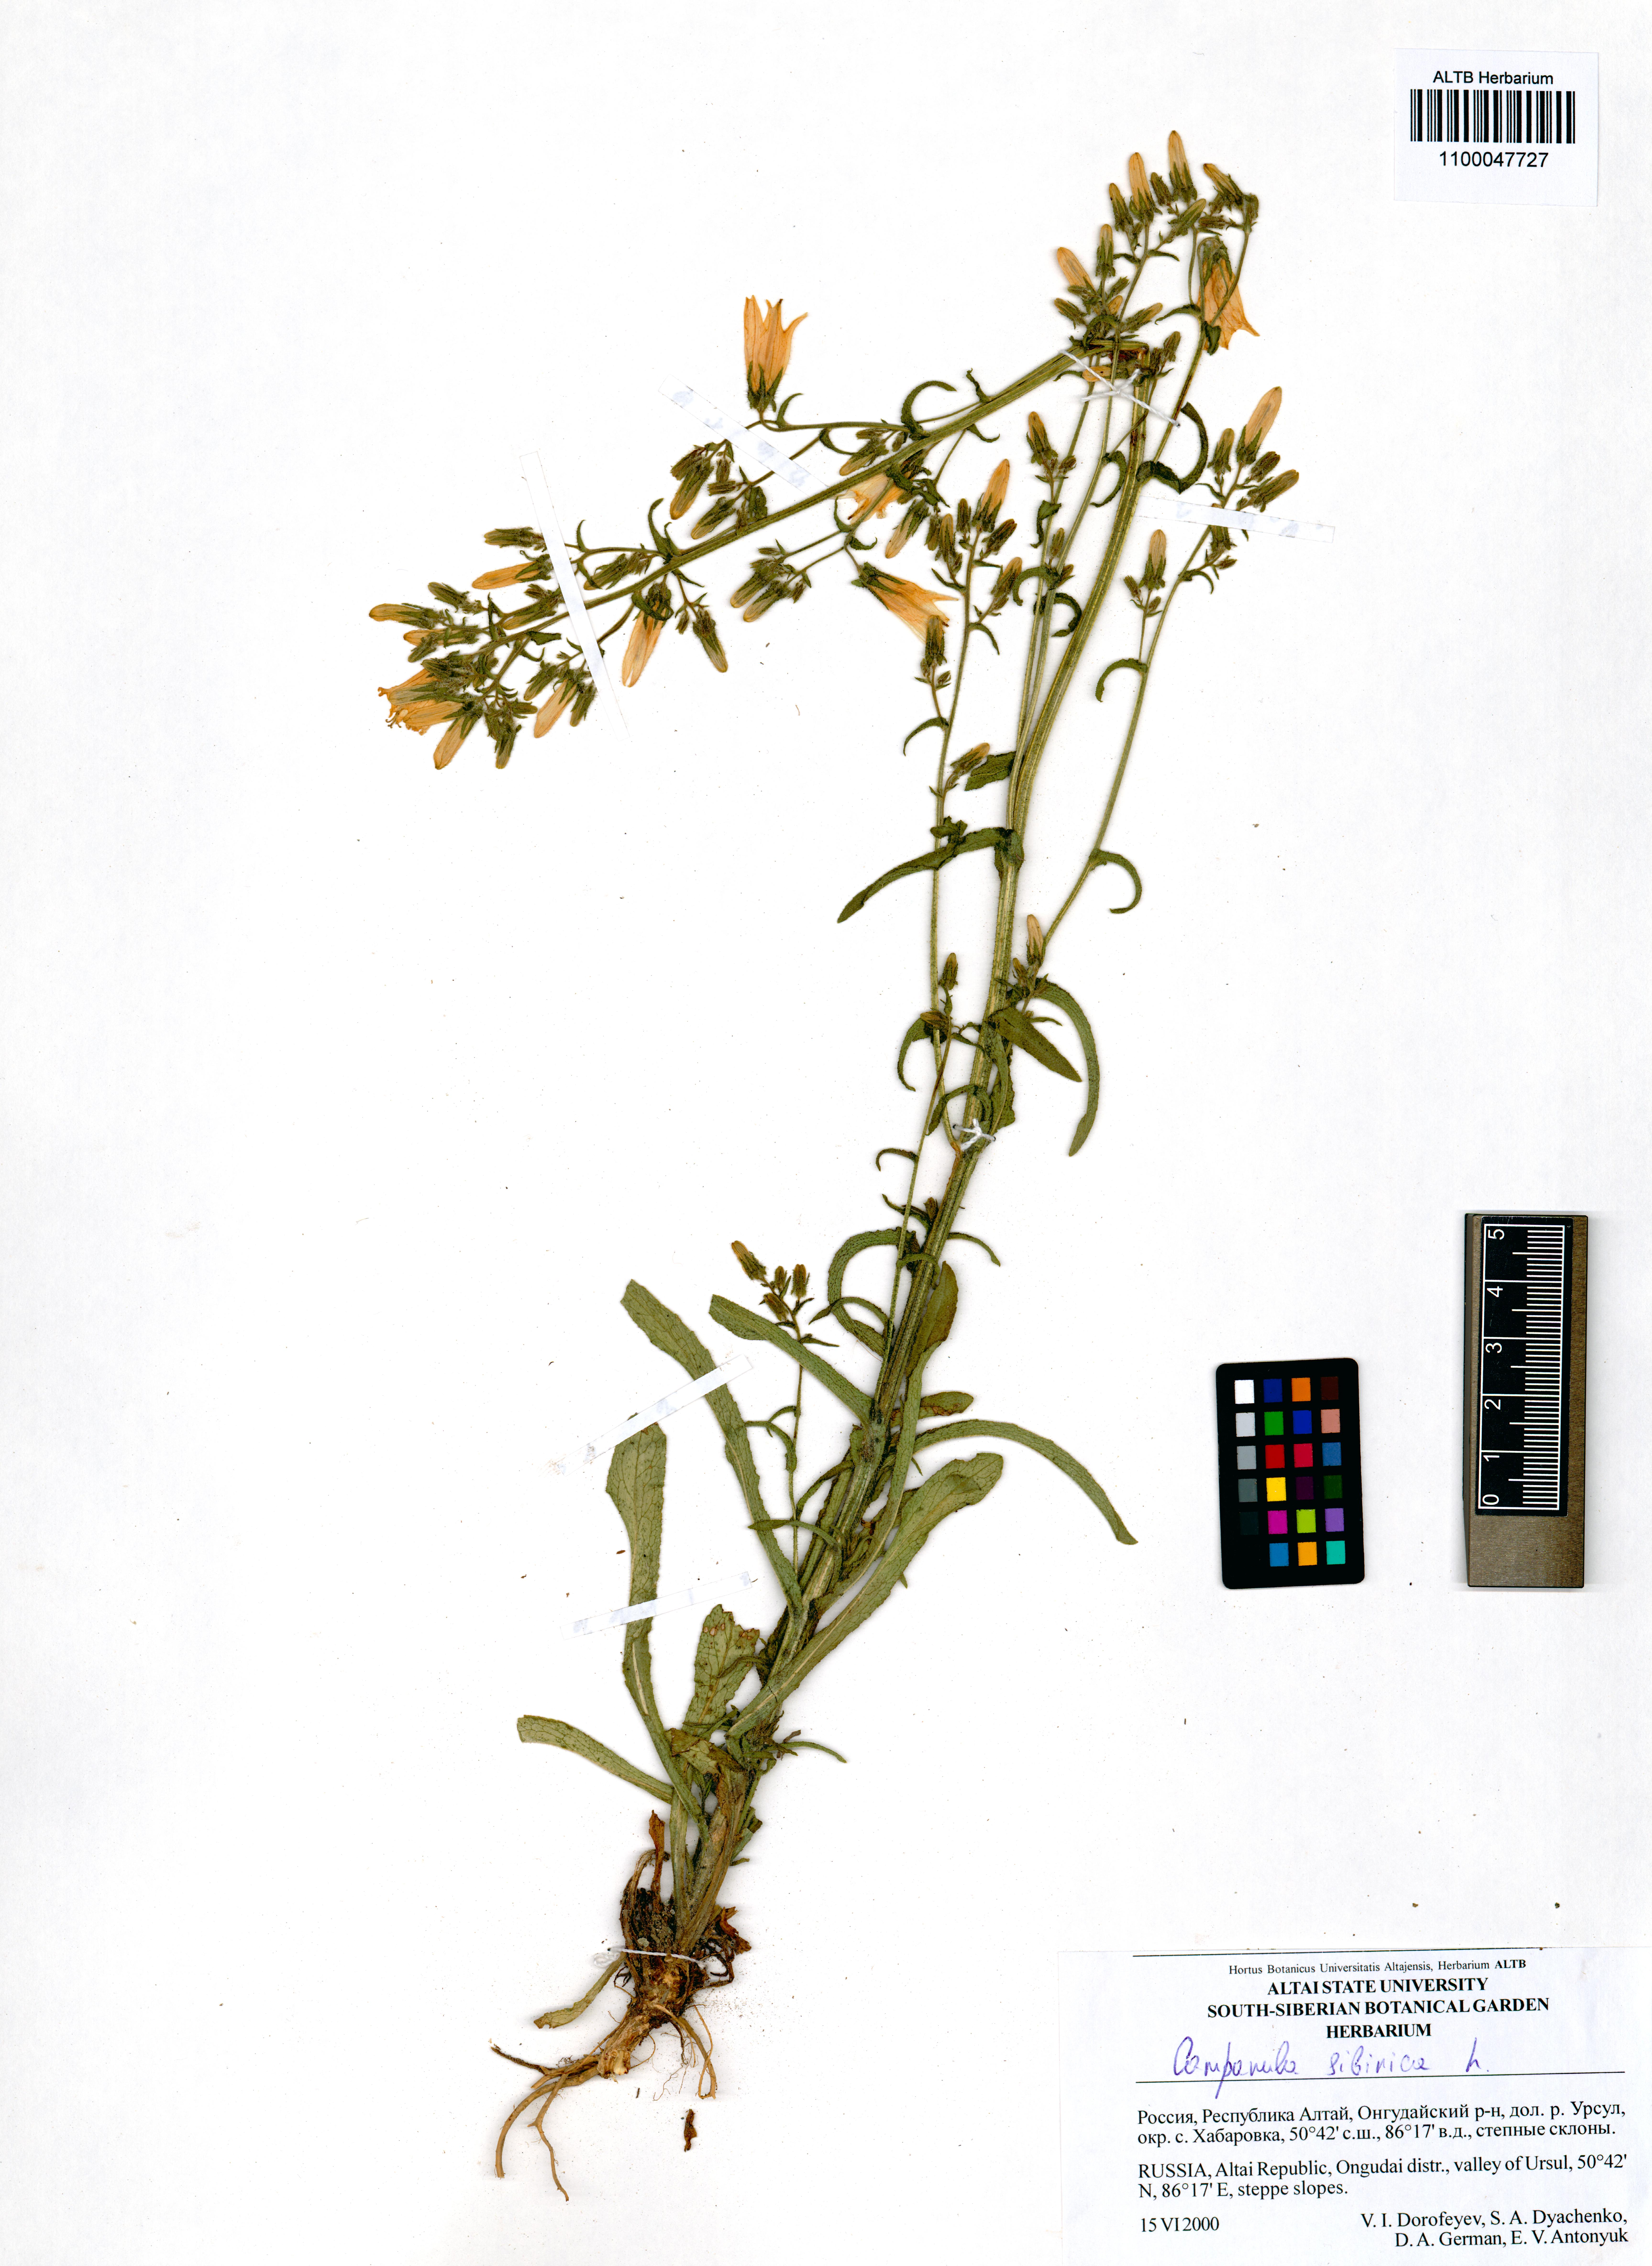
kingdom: Plantae
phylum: Tracheophyta
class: Magnoliopsida
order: Asterales
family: Campanulaceae
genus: Campanula
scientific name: Campanula sibirica
